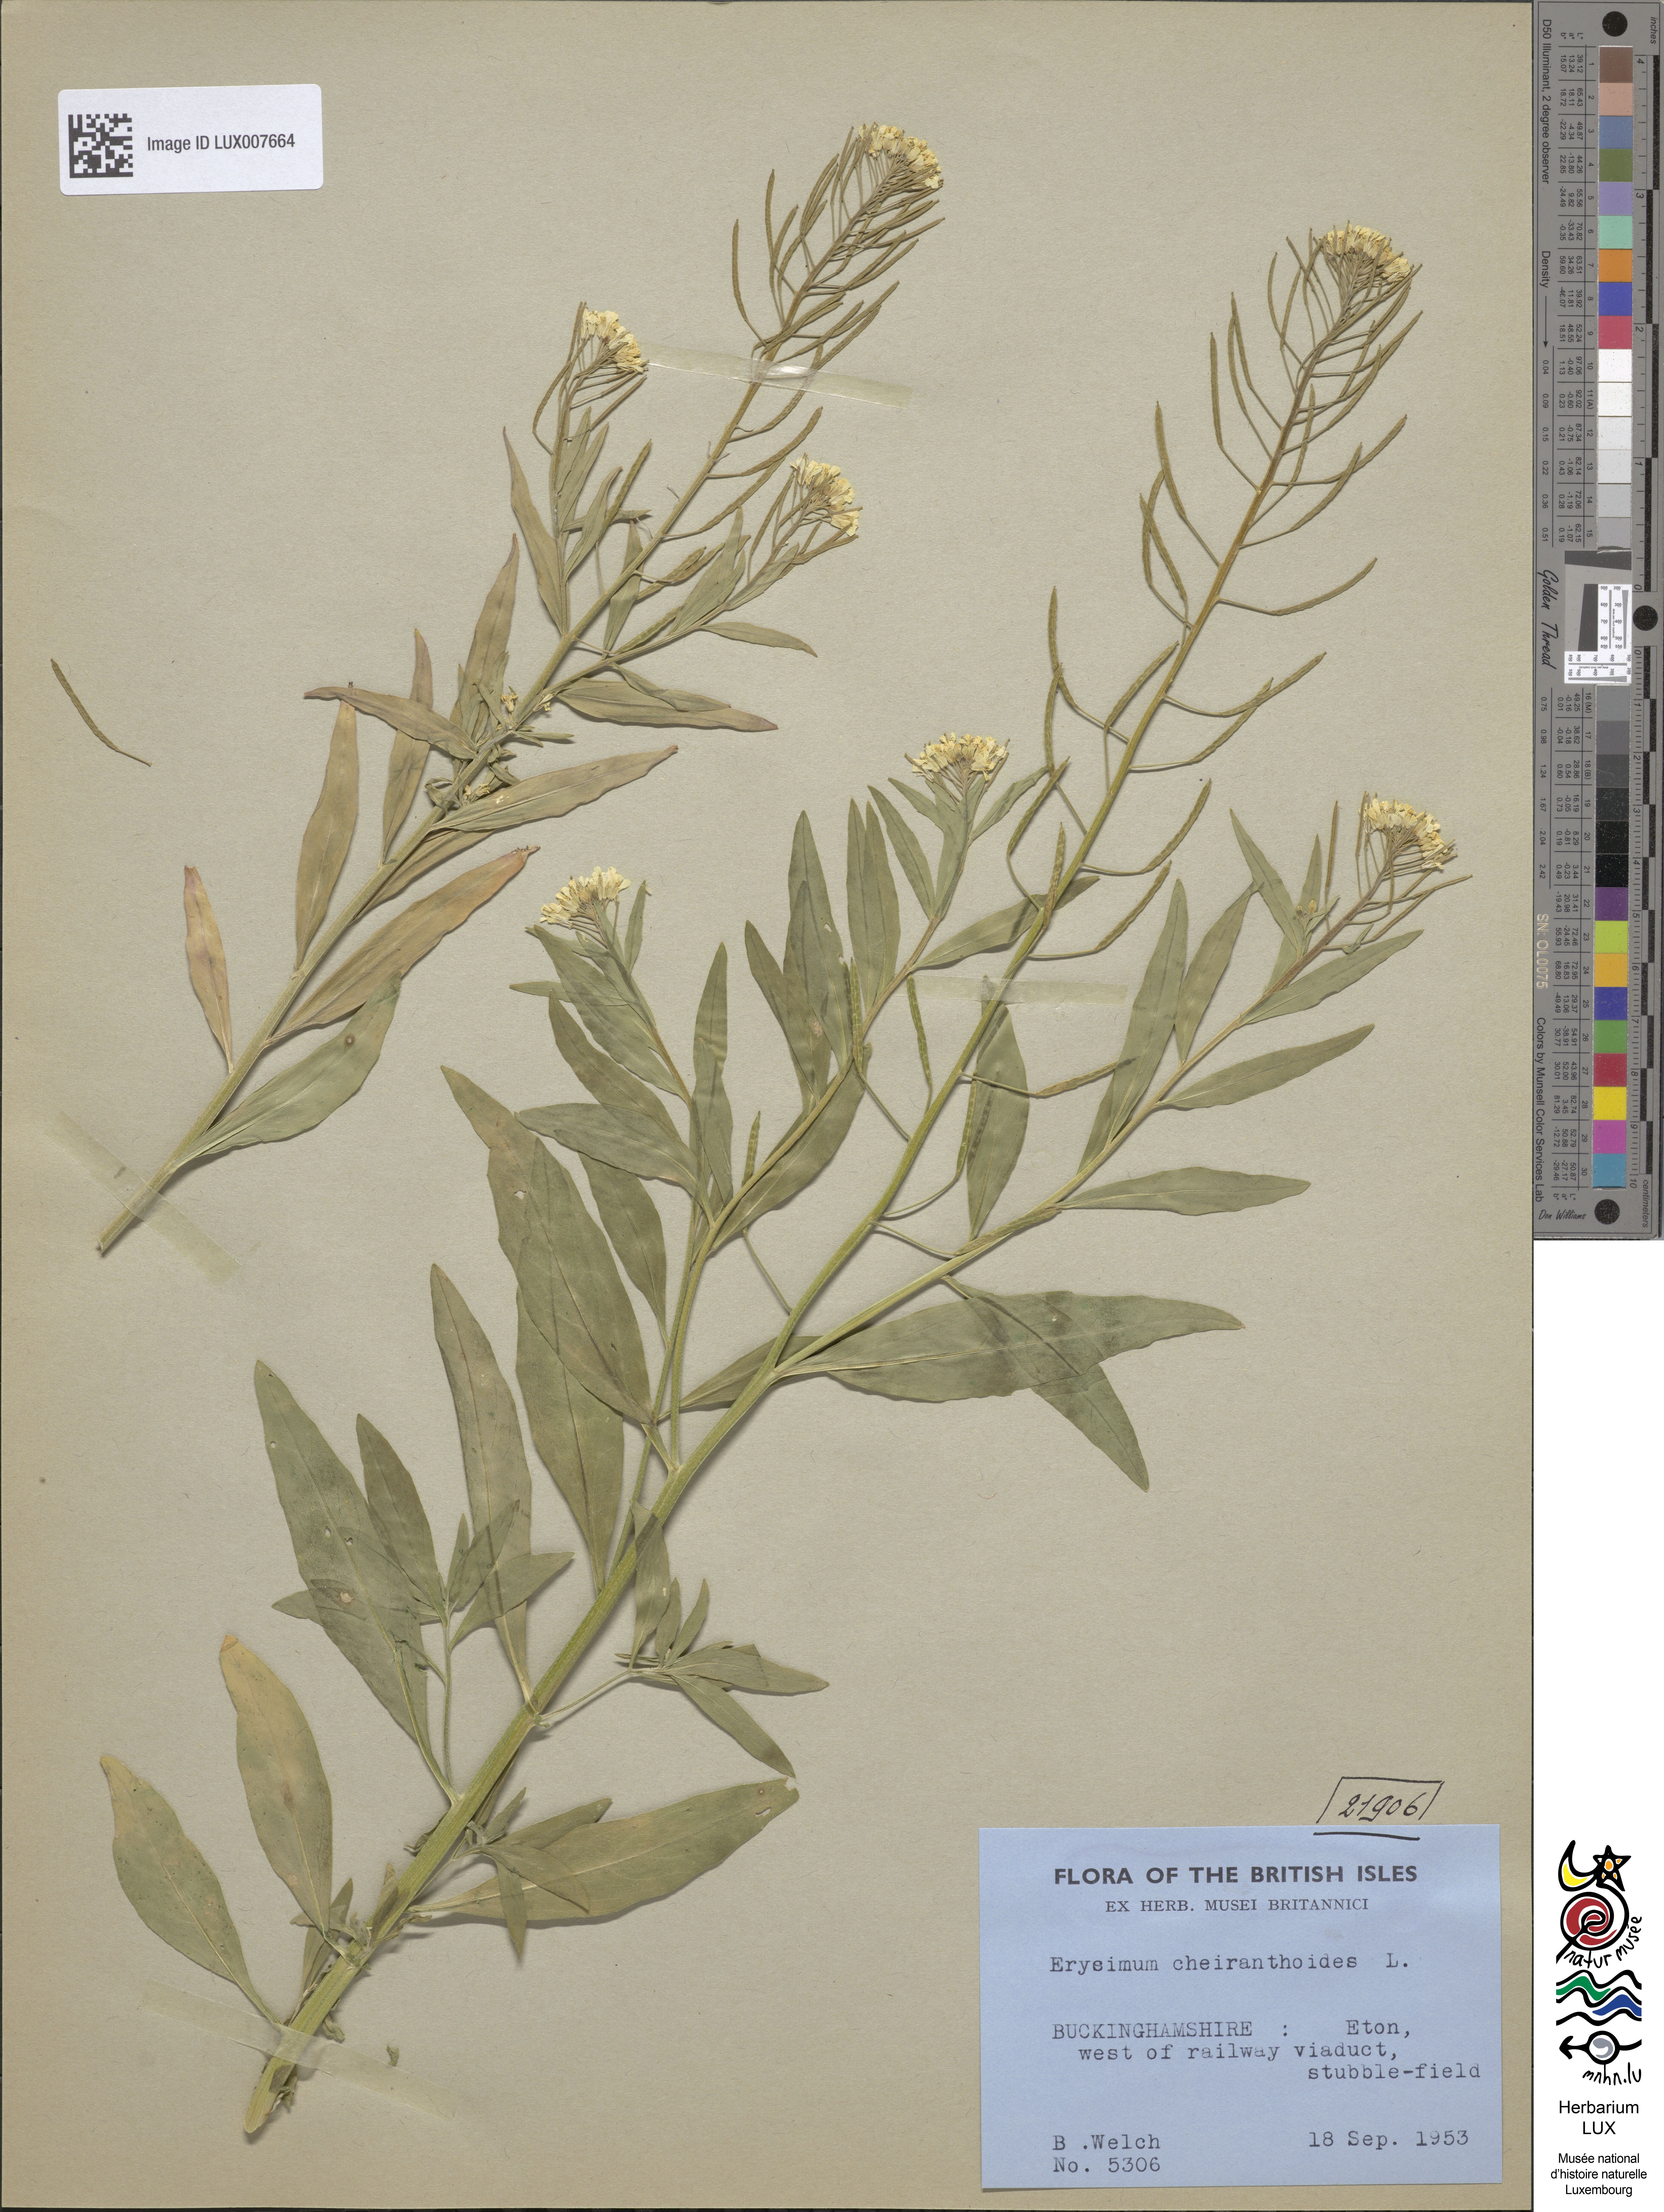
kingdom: Plantae
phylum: Tracheophyta
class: Magnoliopsida
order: Brassicales
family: Brassicaceae
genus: Erysimum
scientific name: Erysimum cheiranthoides
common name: Treacle mustard
